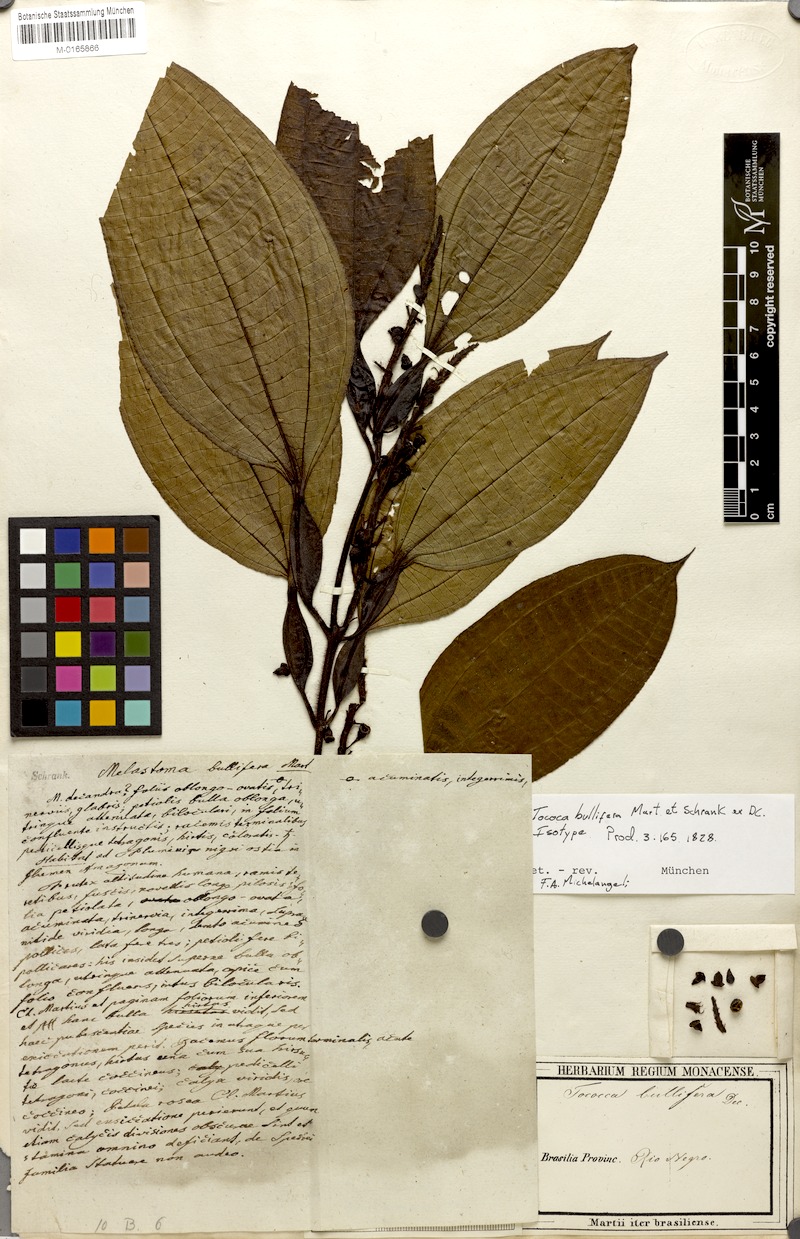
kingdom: Plantae
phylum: Tracheophyta
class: Magnoliopsida
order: Myrtales
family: Melastomataceae
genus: Miconia
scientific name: Miconia bullifera
